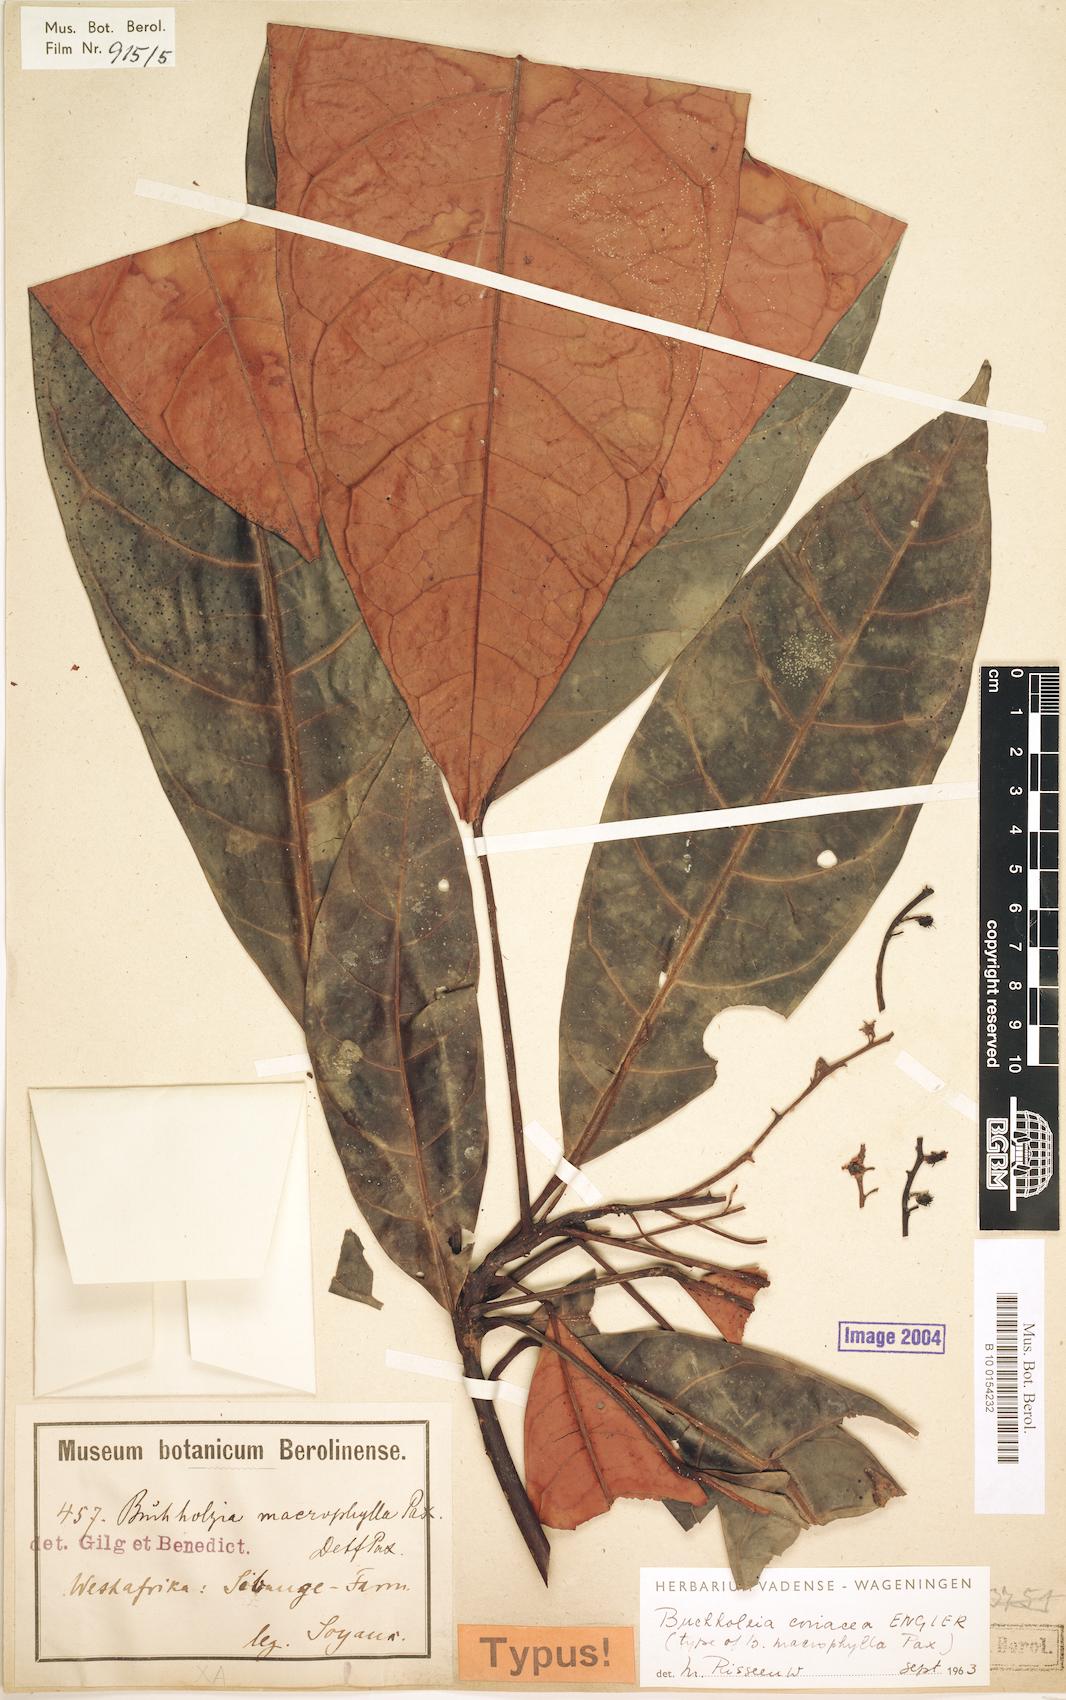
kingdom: Plantae
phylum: Tracheophyta
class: Magnoliopsida
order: Brassicales
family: Capparaceae
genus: Buchholzia
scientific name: Buchholzia coriacea
